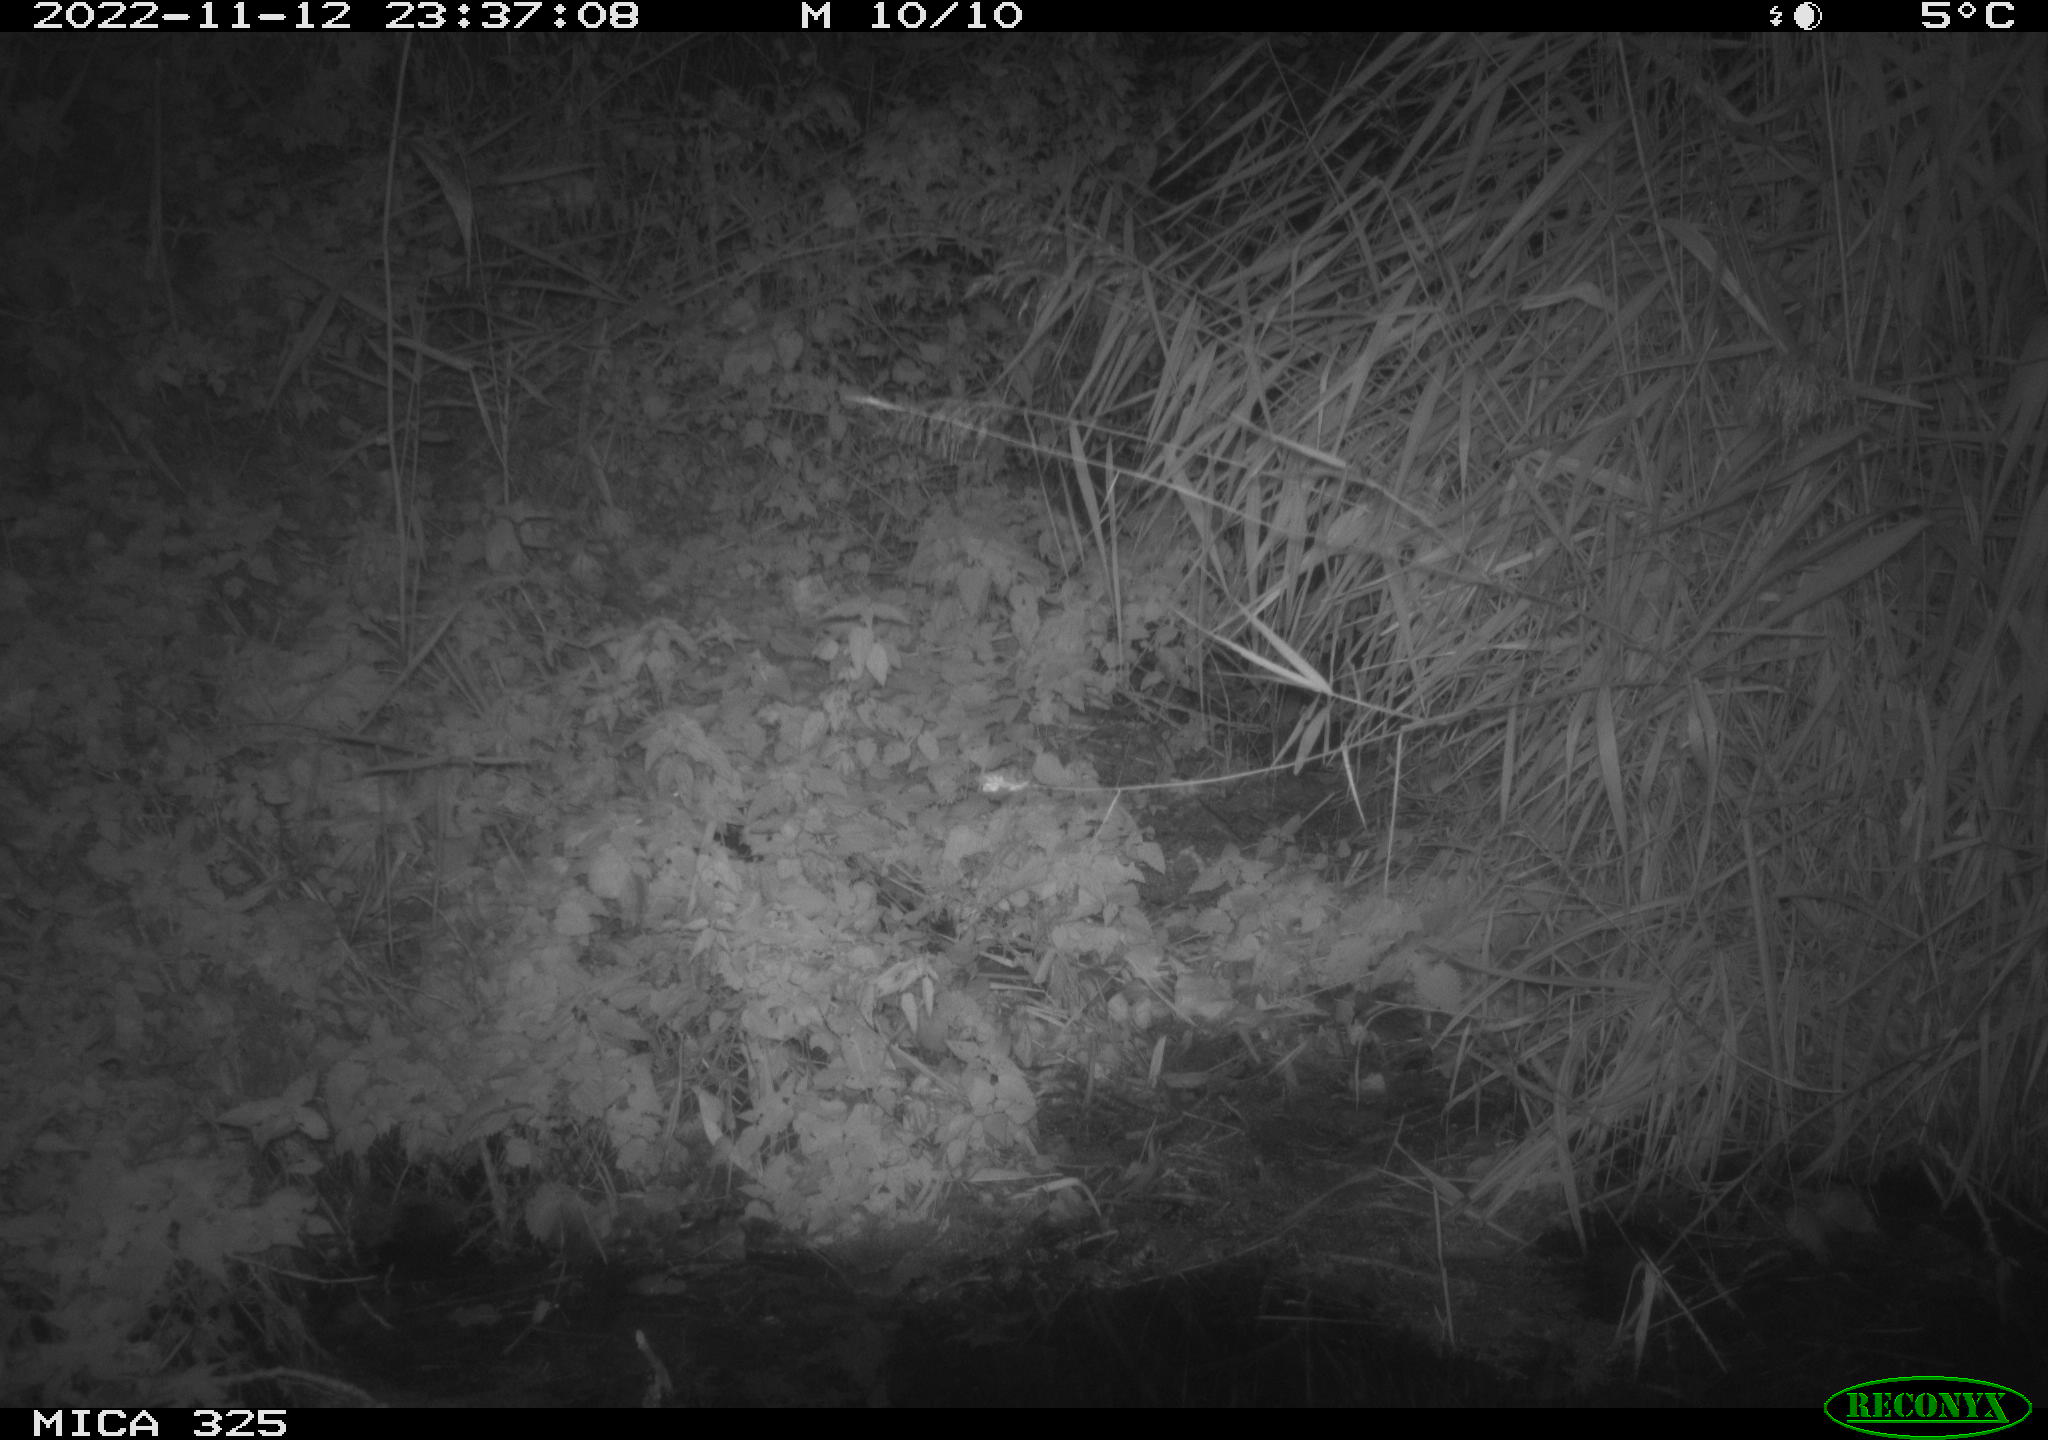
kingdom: Animalia
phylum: Chordata
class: Mammalia
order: Rodentia
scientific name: Rodentia
